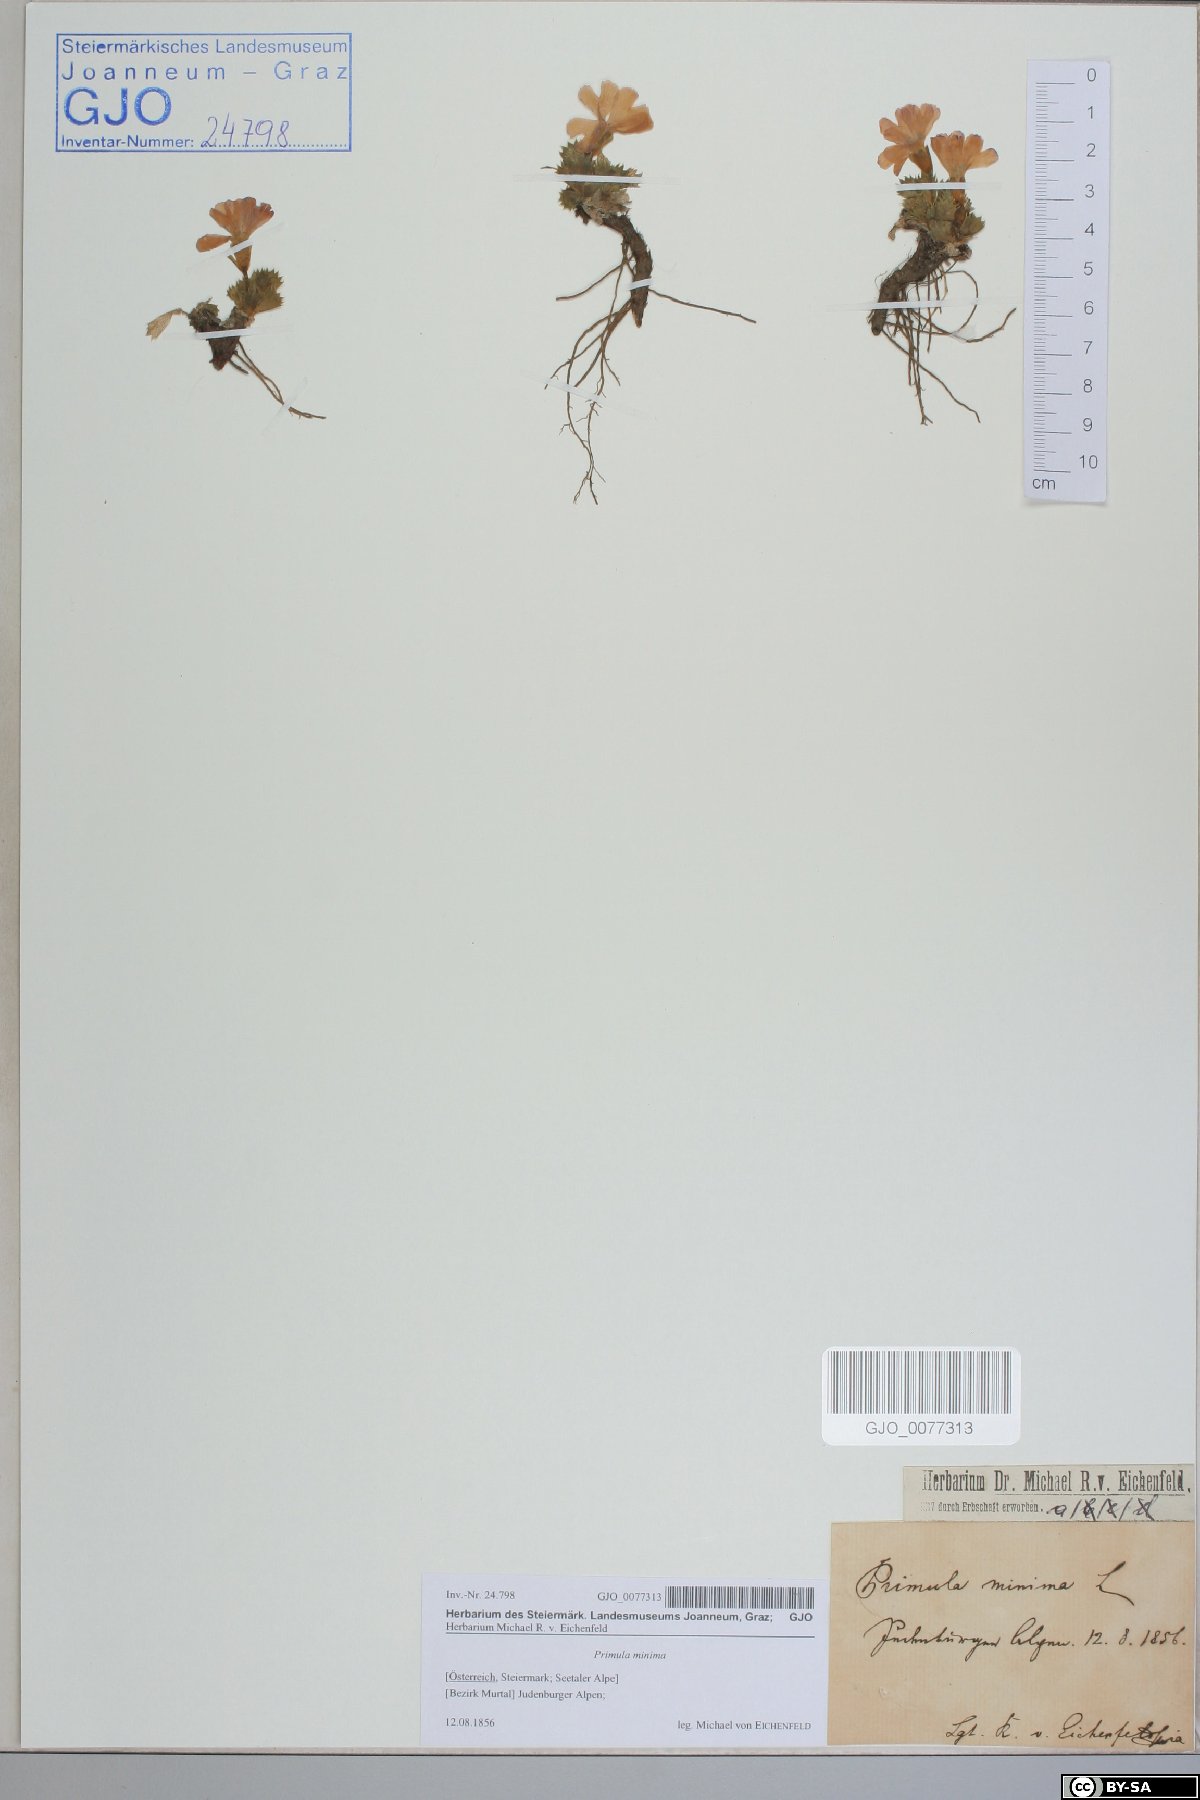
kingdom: Plantae
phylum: Tracheophyta
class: Magnoliopsida
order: Ericales
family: Primulaceae
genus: Primula
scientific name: Primula minima
